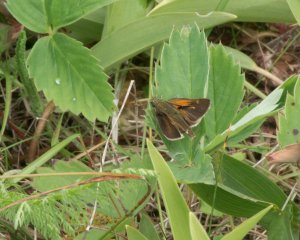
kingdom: Animalia
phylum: Arthropoda
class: Insecta
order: Lepidoptera
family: Hesperiidae
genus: Polites
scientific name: Polites coras
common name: Peck's Skipper
